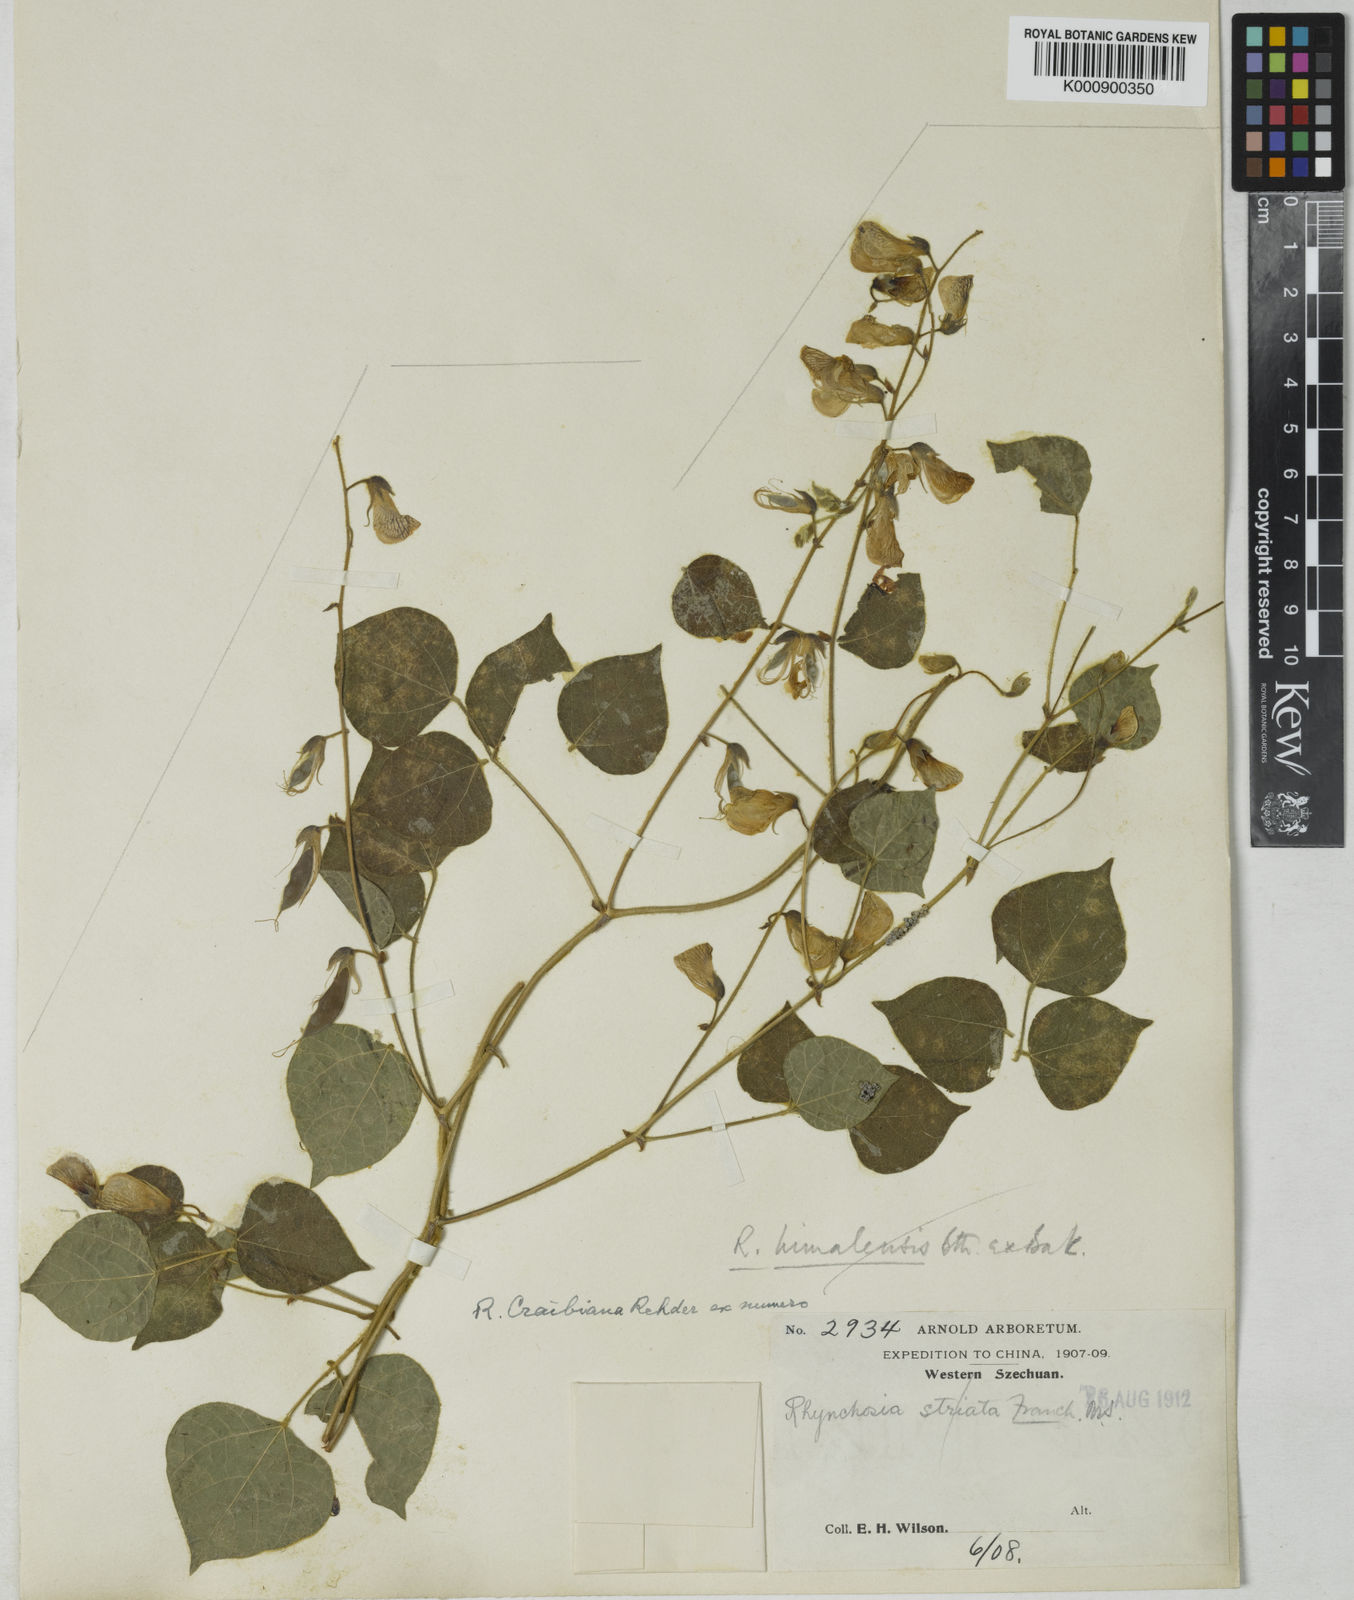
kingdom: Plantae
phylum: Tracheophyta
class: Magnoliopsida
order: Fabales
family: Fabaceae
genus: Rhynchosia
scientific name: Rhynchosia himalensis
